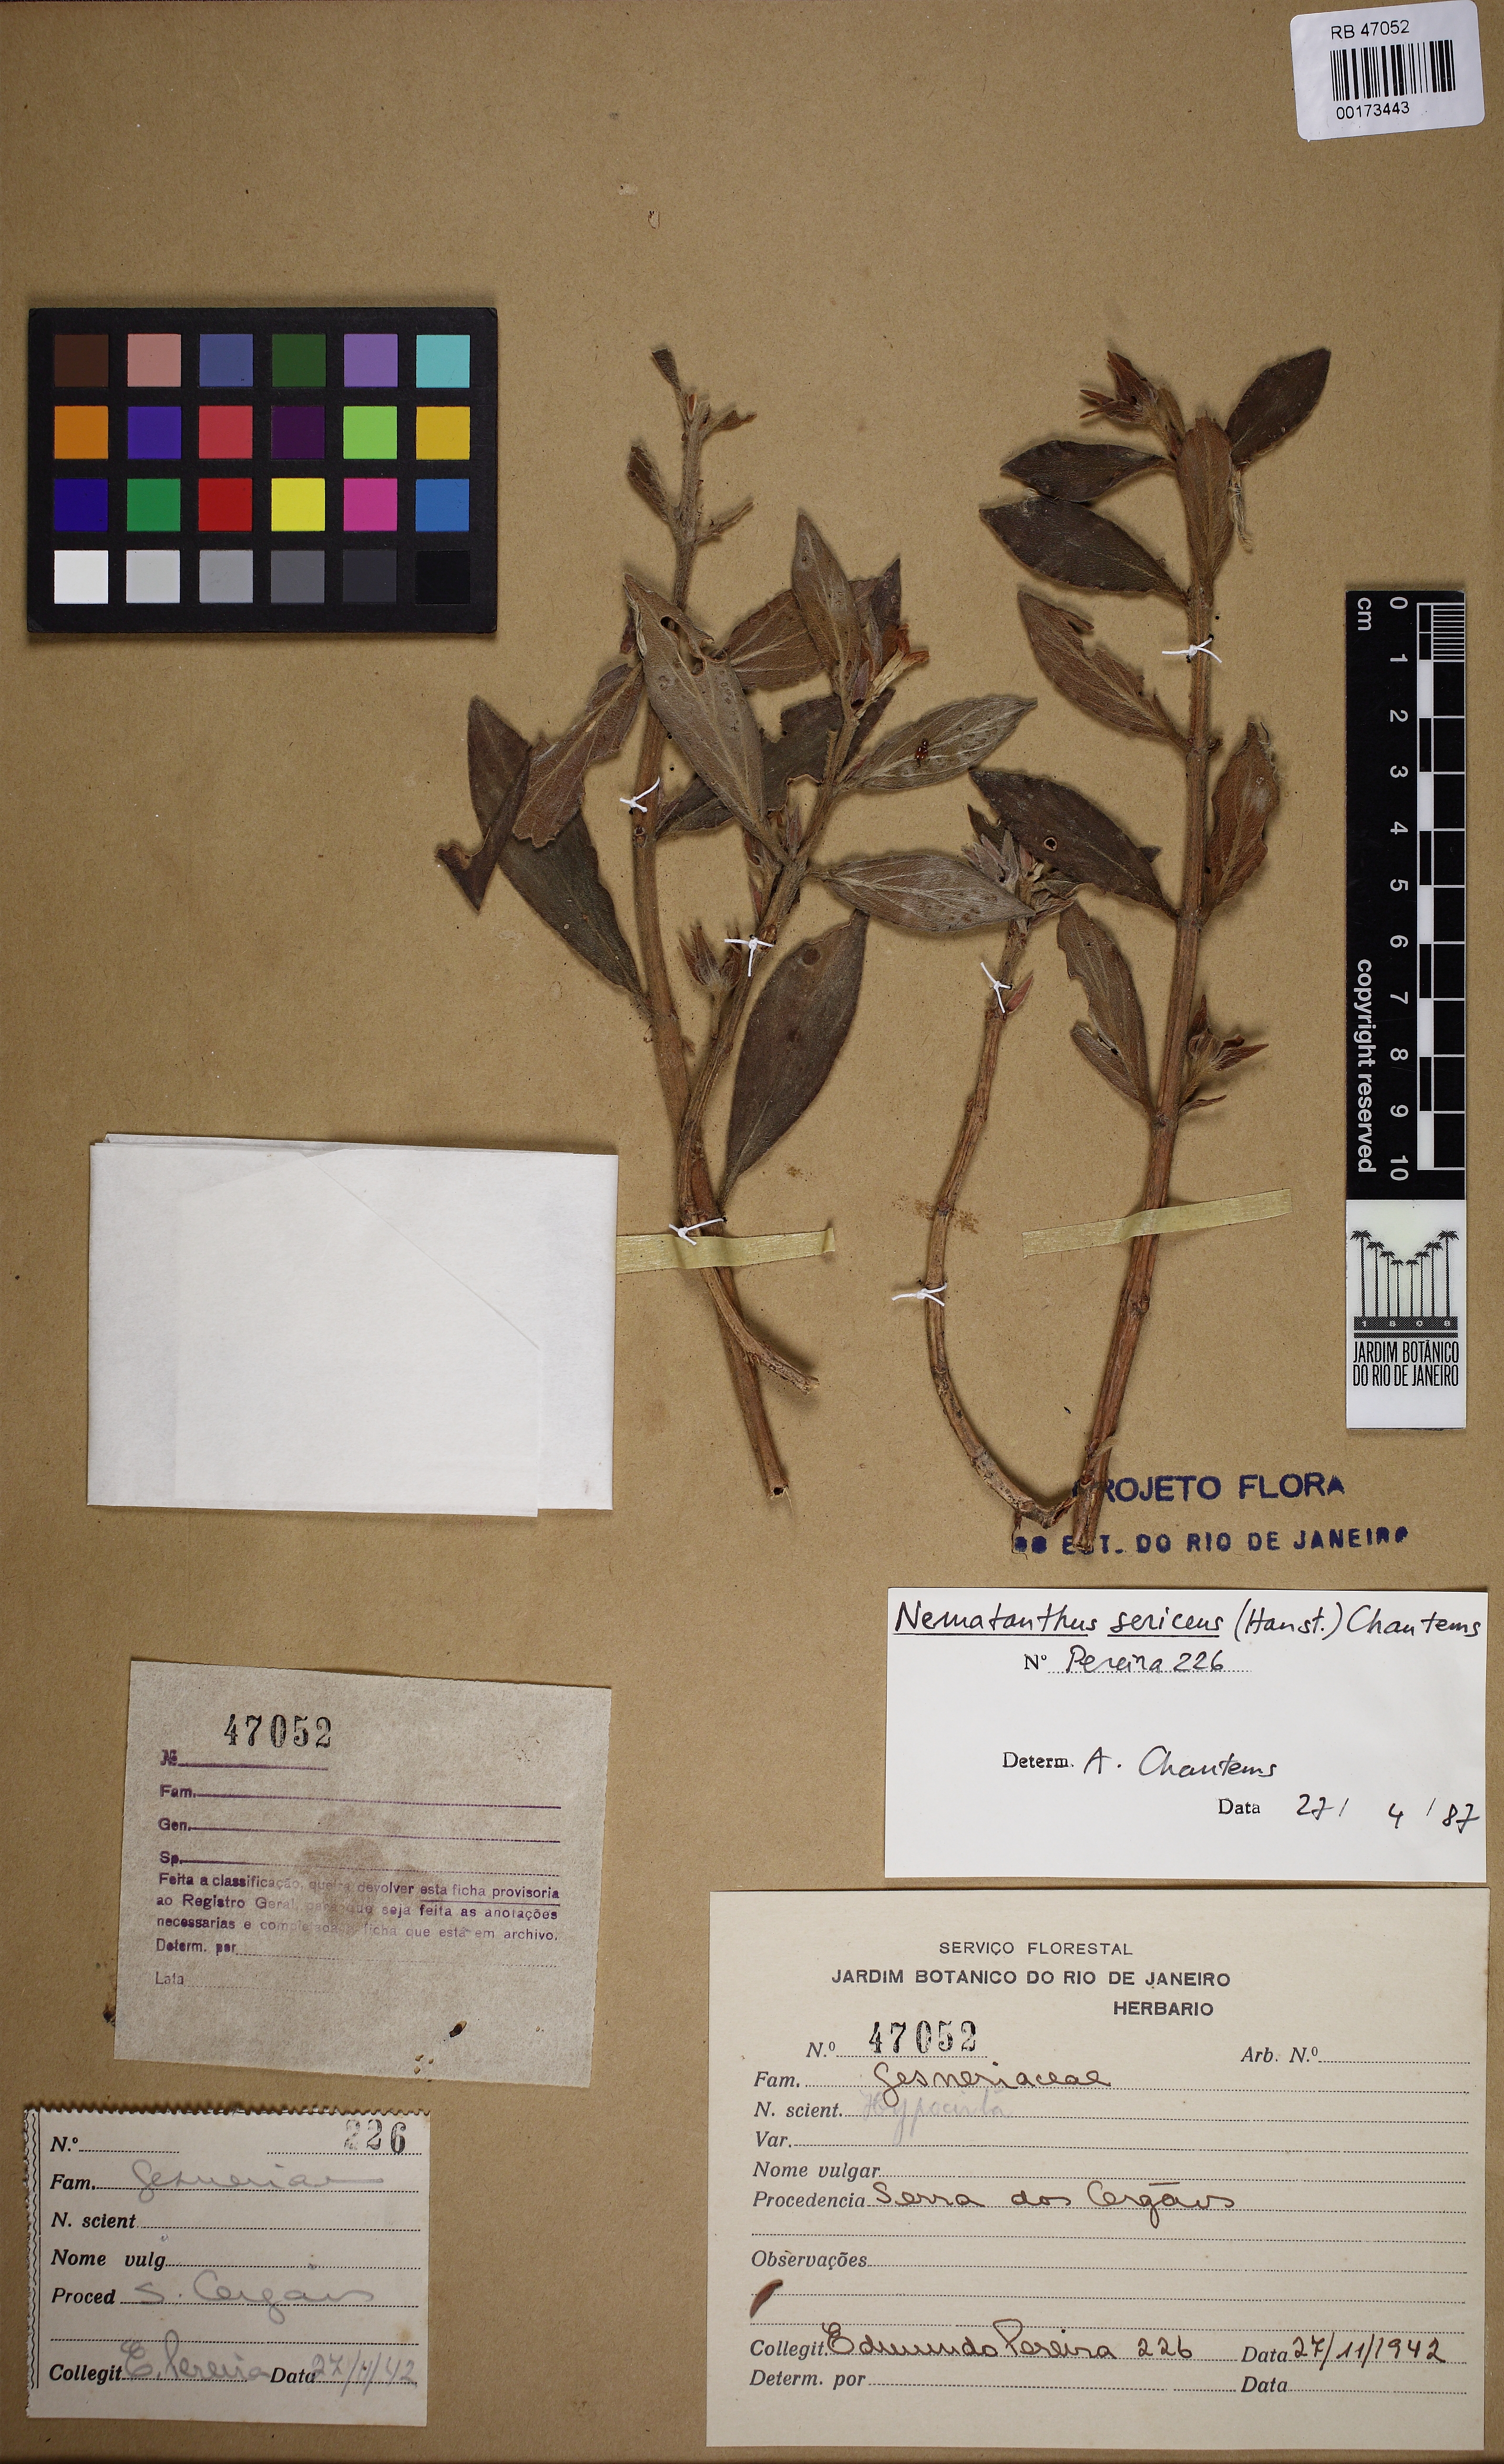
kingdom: Plantae
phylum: Tracheophyta
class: Magnoliopsida
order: Lamiales
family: Gesneriaceae
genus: Nematanthus
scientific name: Nematanthus sericeus
